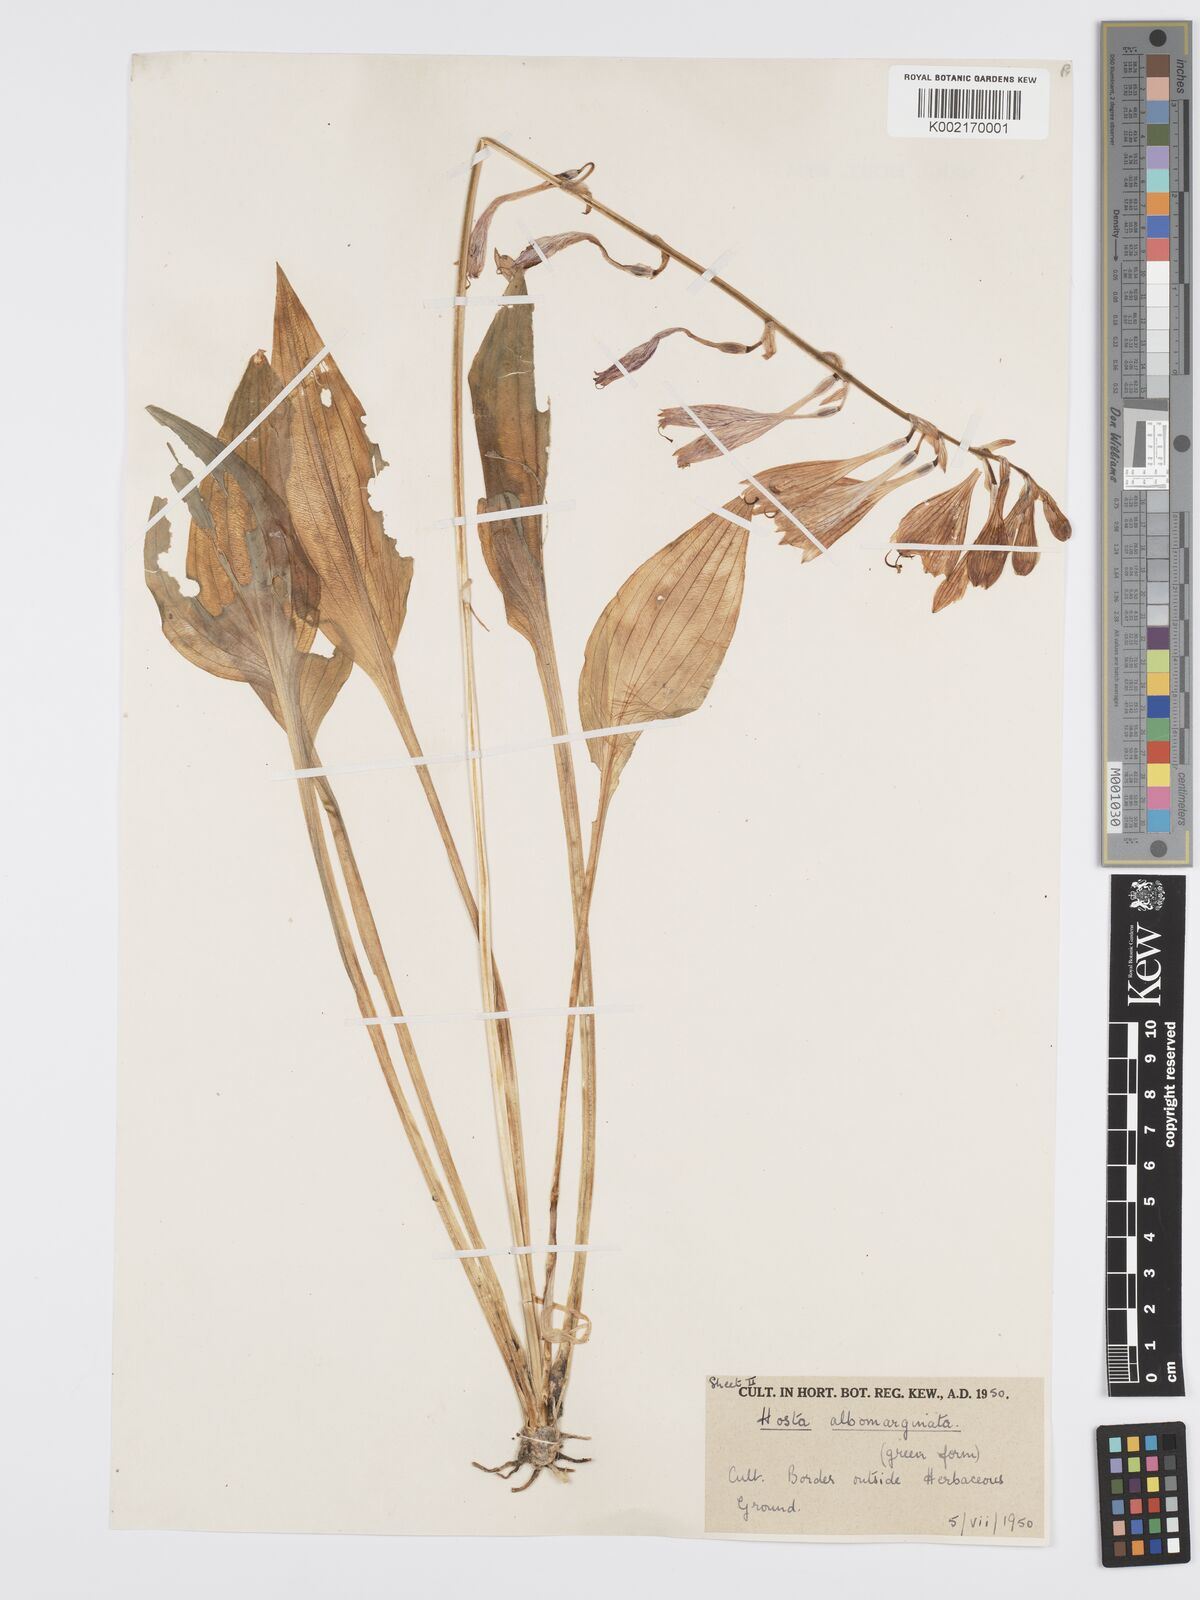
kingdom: Plantae
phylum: Tracheophyta
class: Liliopsida
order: Asparagales
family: Asparagaceae
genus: Hosta
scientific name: Hosta sieboldii
